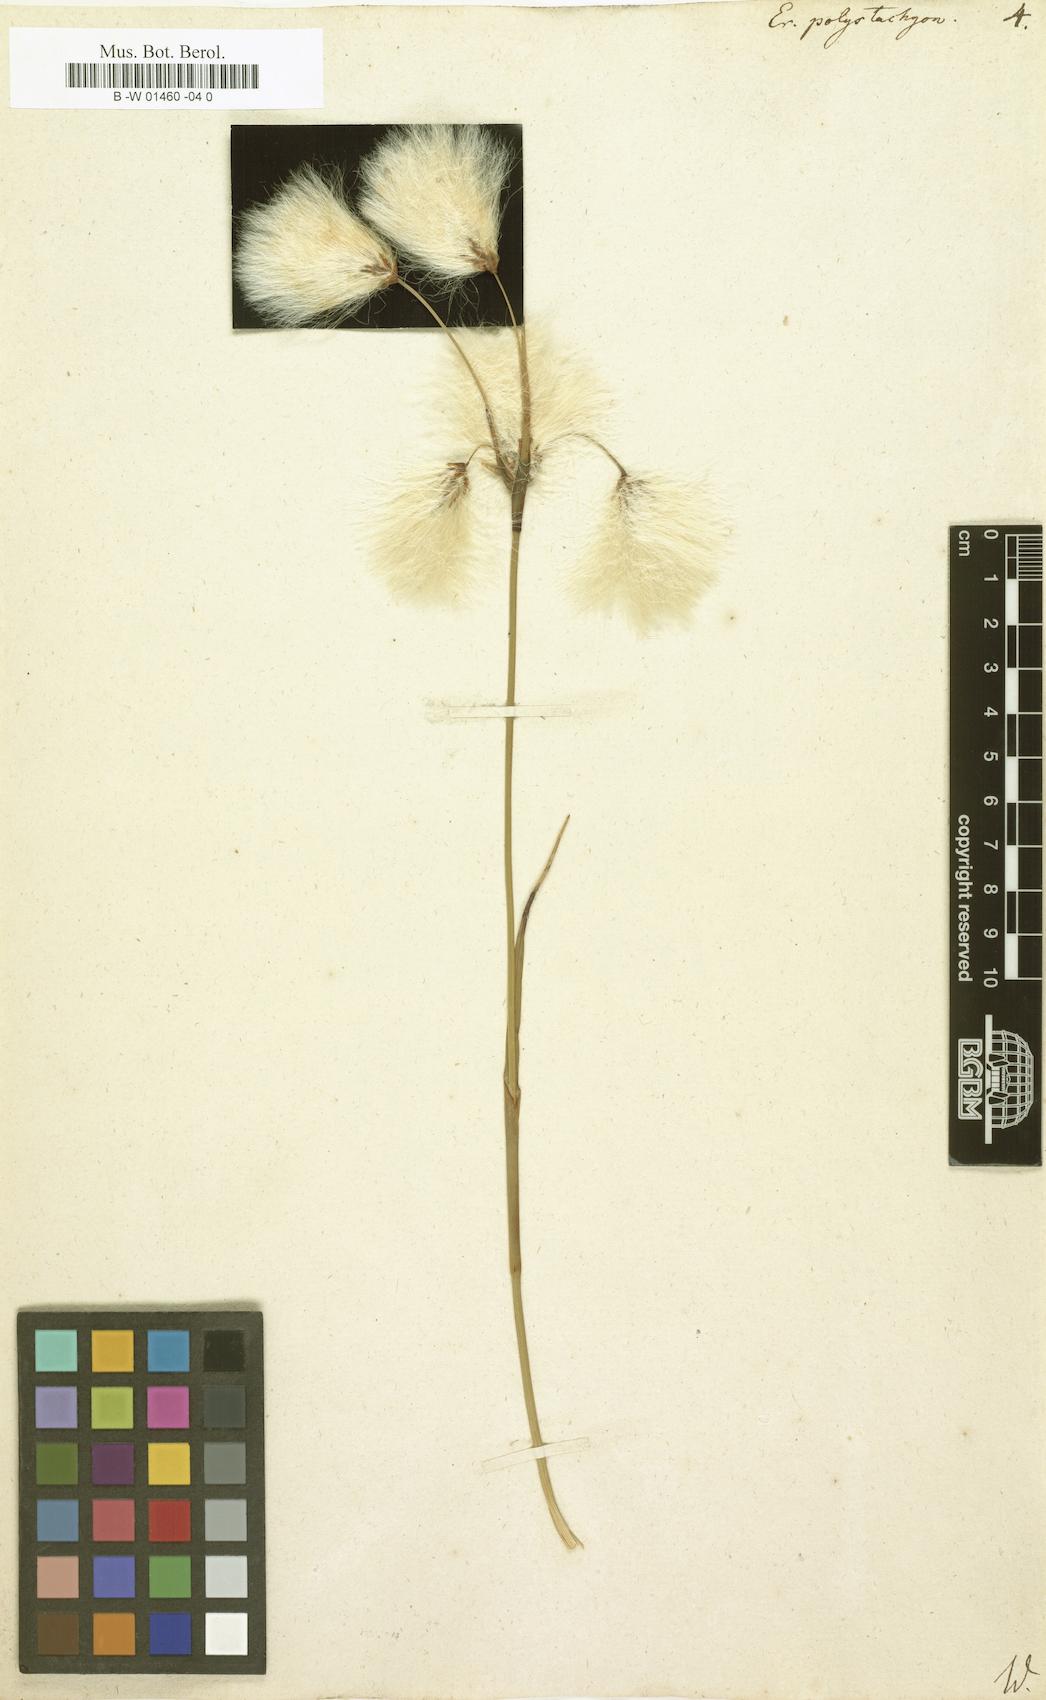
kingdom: Plantae
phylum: Tracheophyta
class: Liliopsida
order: Poales
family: Cyperaceae
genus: Eriophorum
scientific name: Eriophorum angustifolium
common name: Common cottongrass
